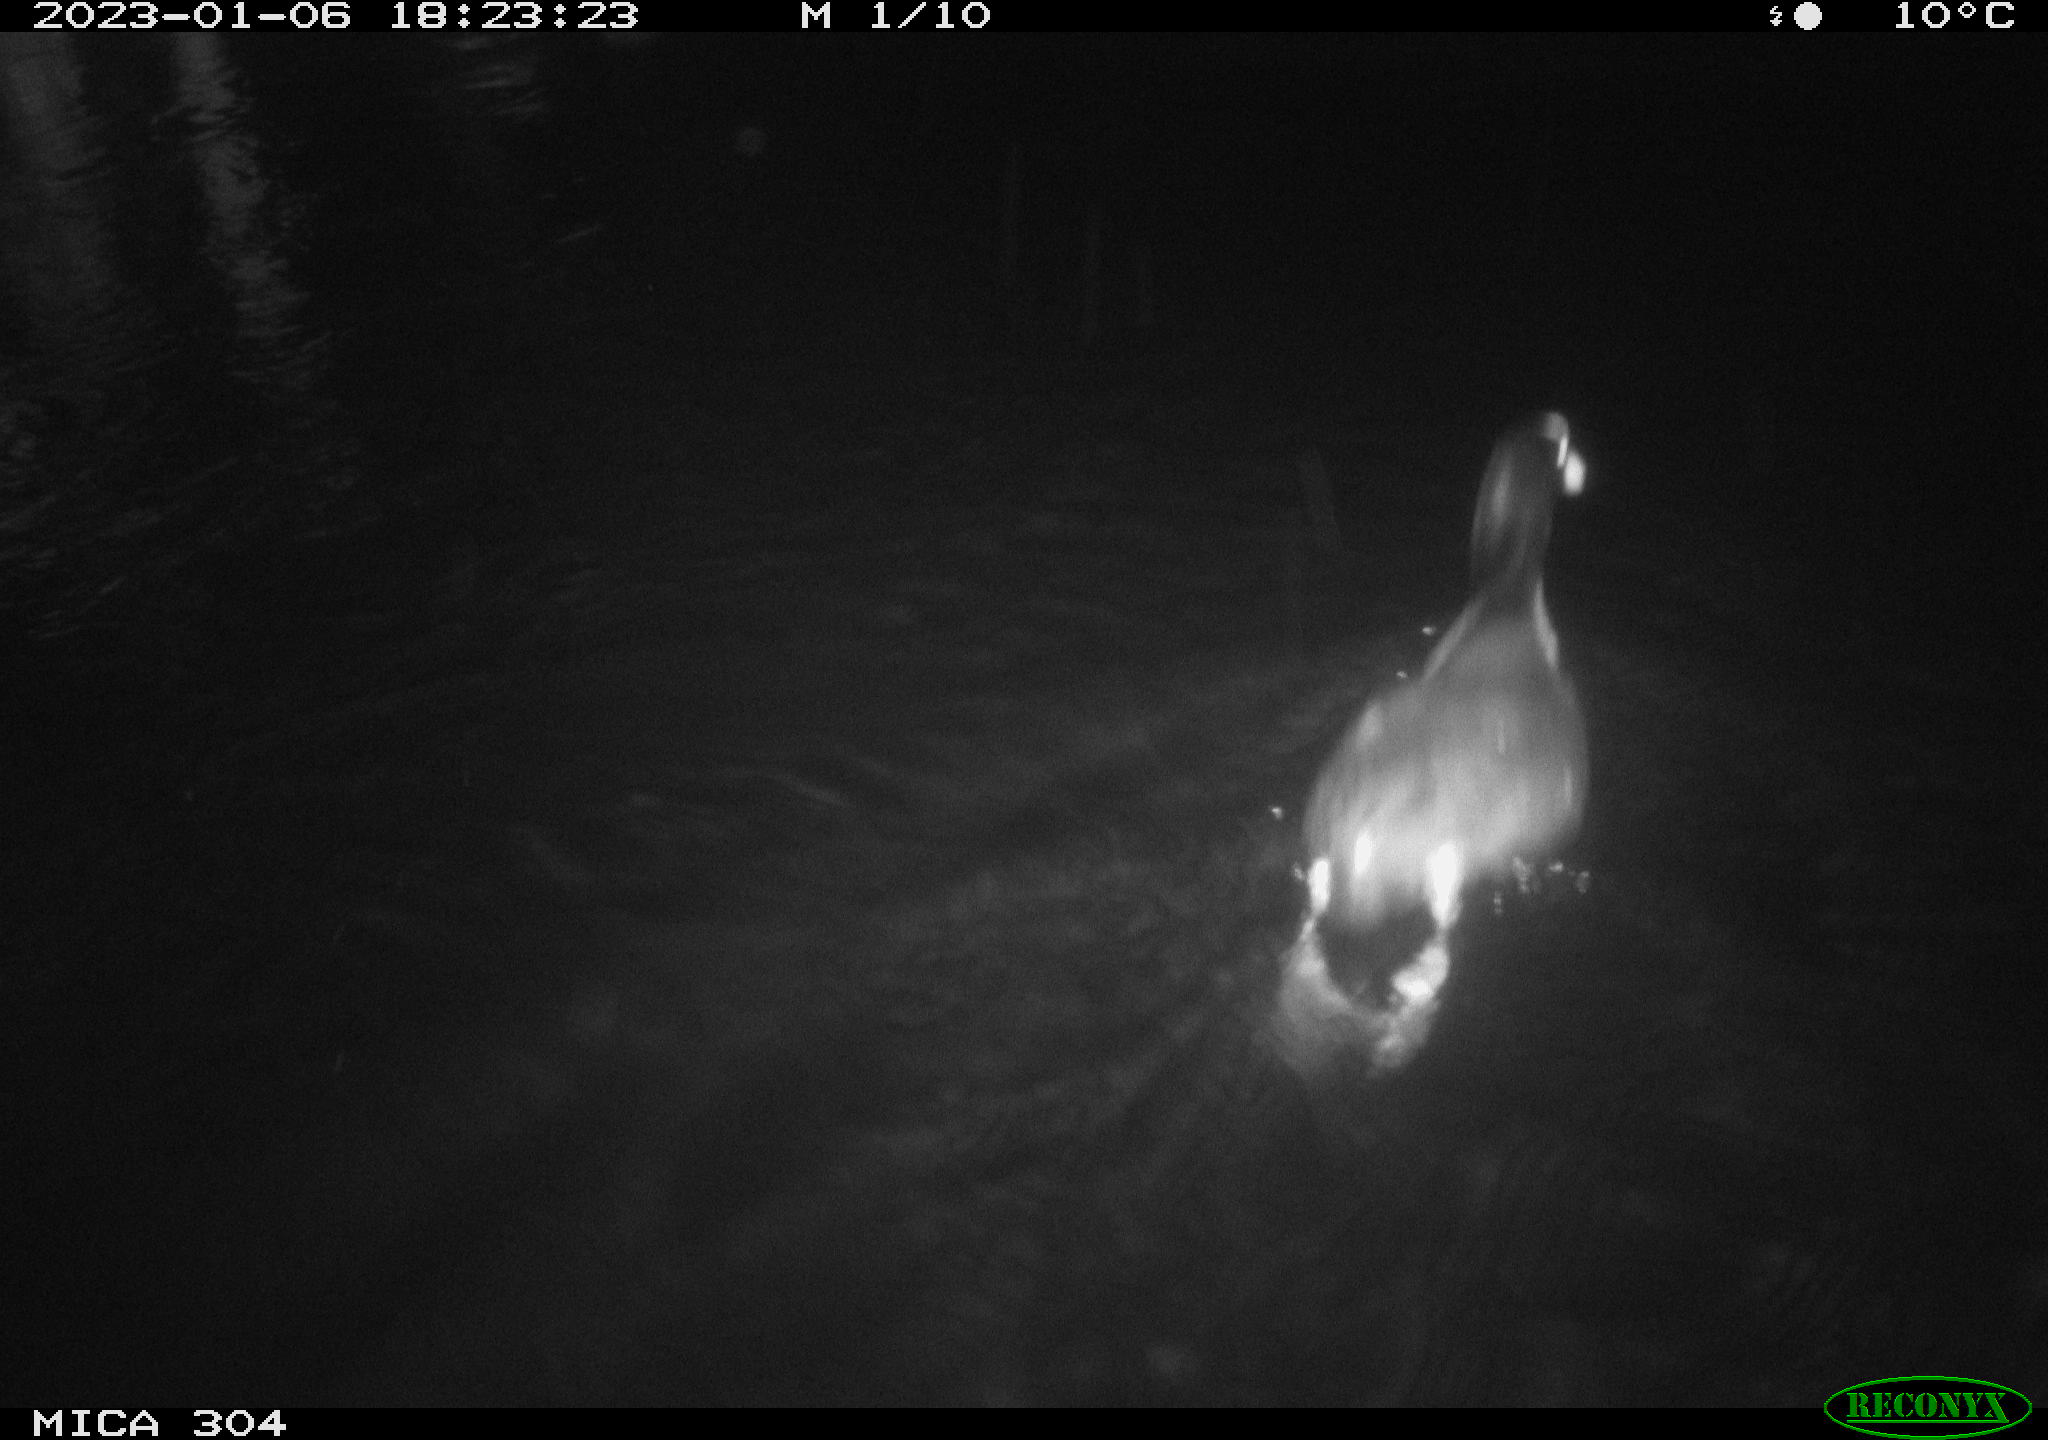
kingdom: Animalia
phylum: Chordata
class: Aves
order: Anseriformes
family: Anatidae
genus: Anas
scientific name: Anas
